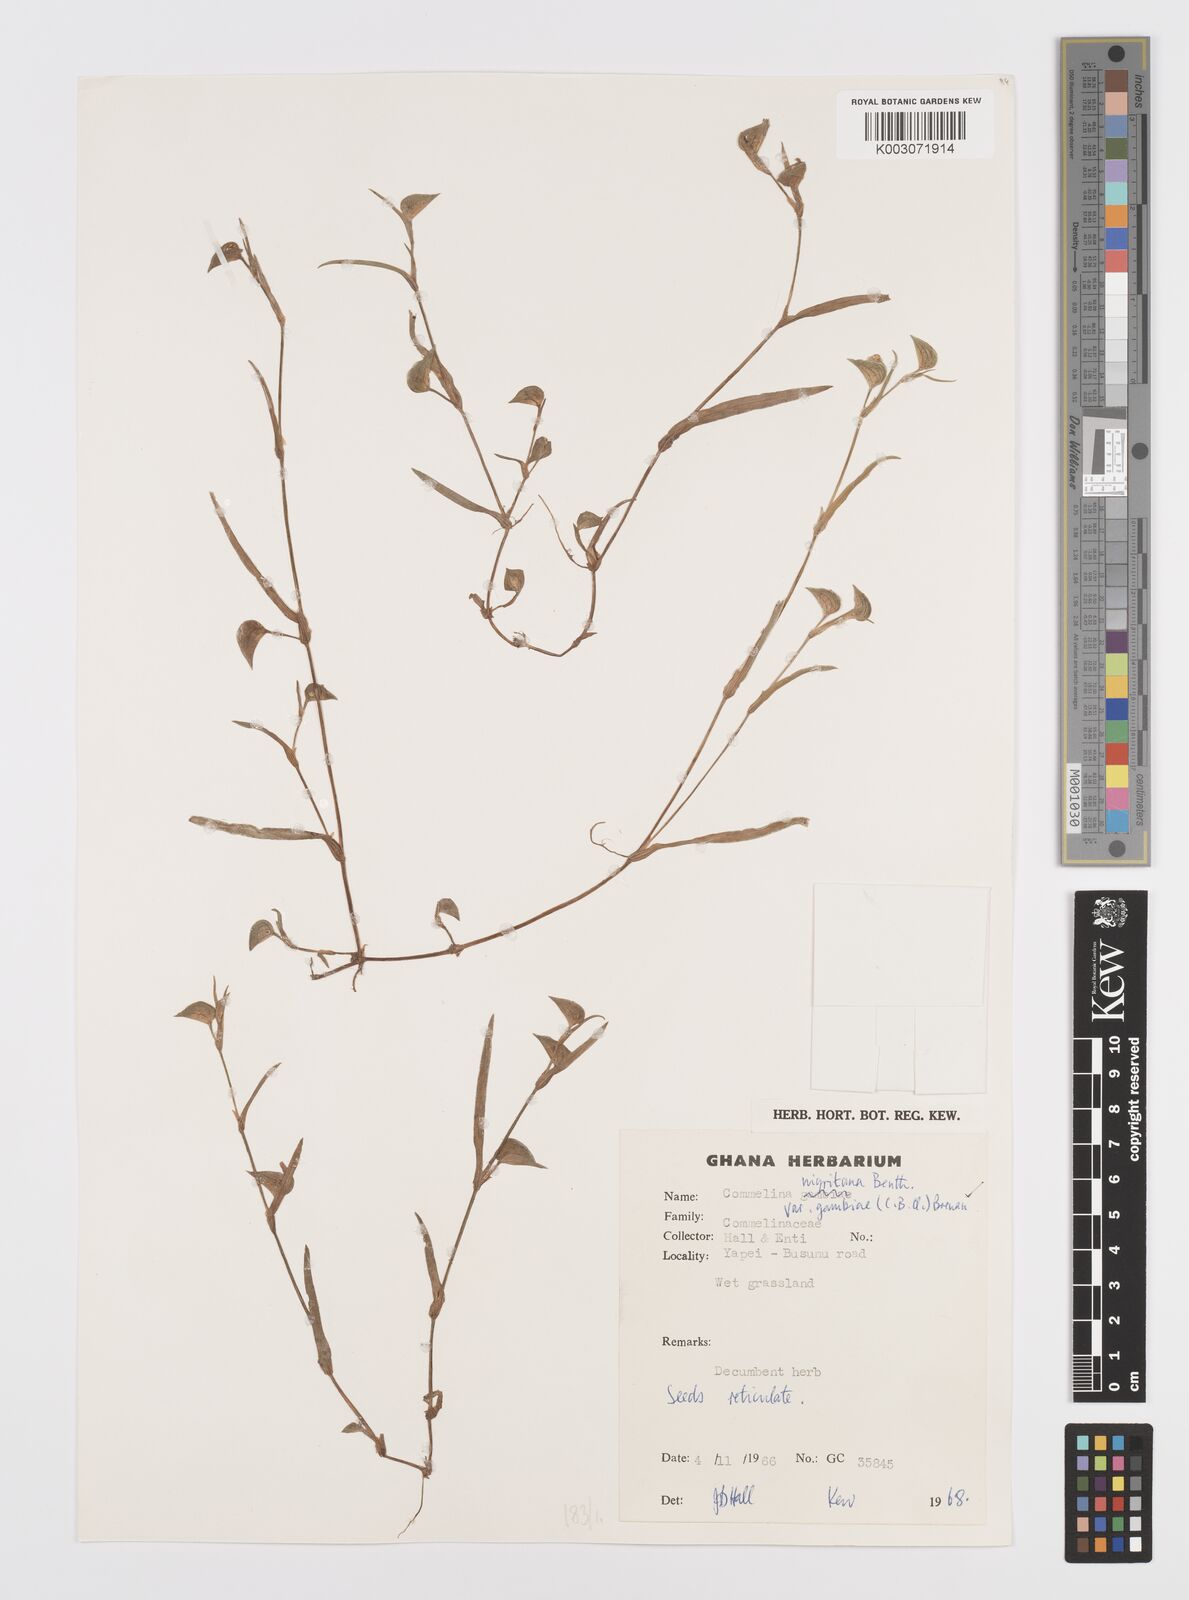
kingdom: Plantae
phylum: Tracheophyta
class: Liliopsida
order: Commelinales
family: Commelinaceae
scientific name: Commelinaceae
